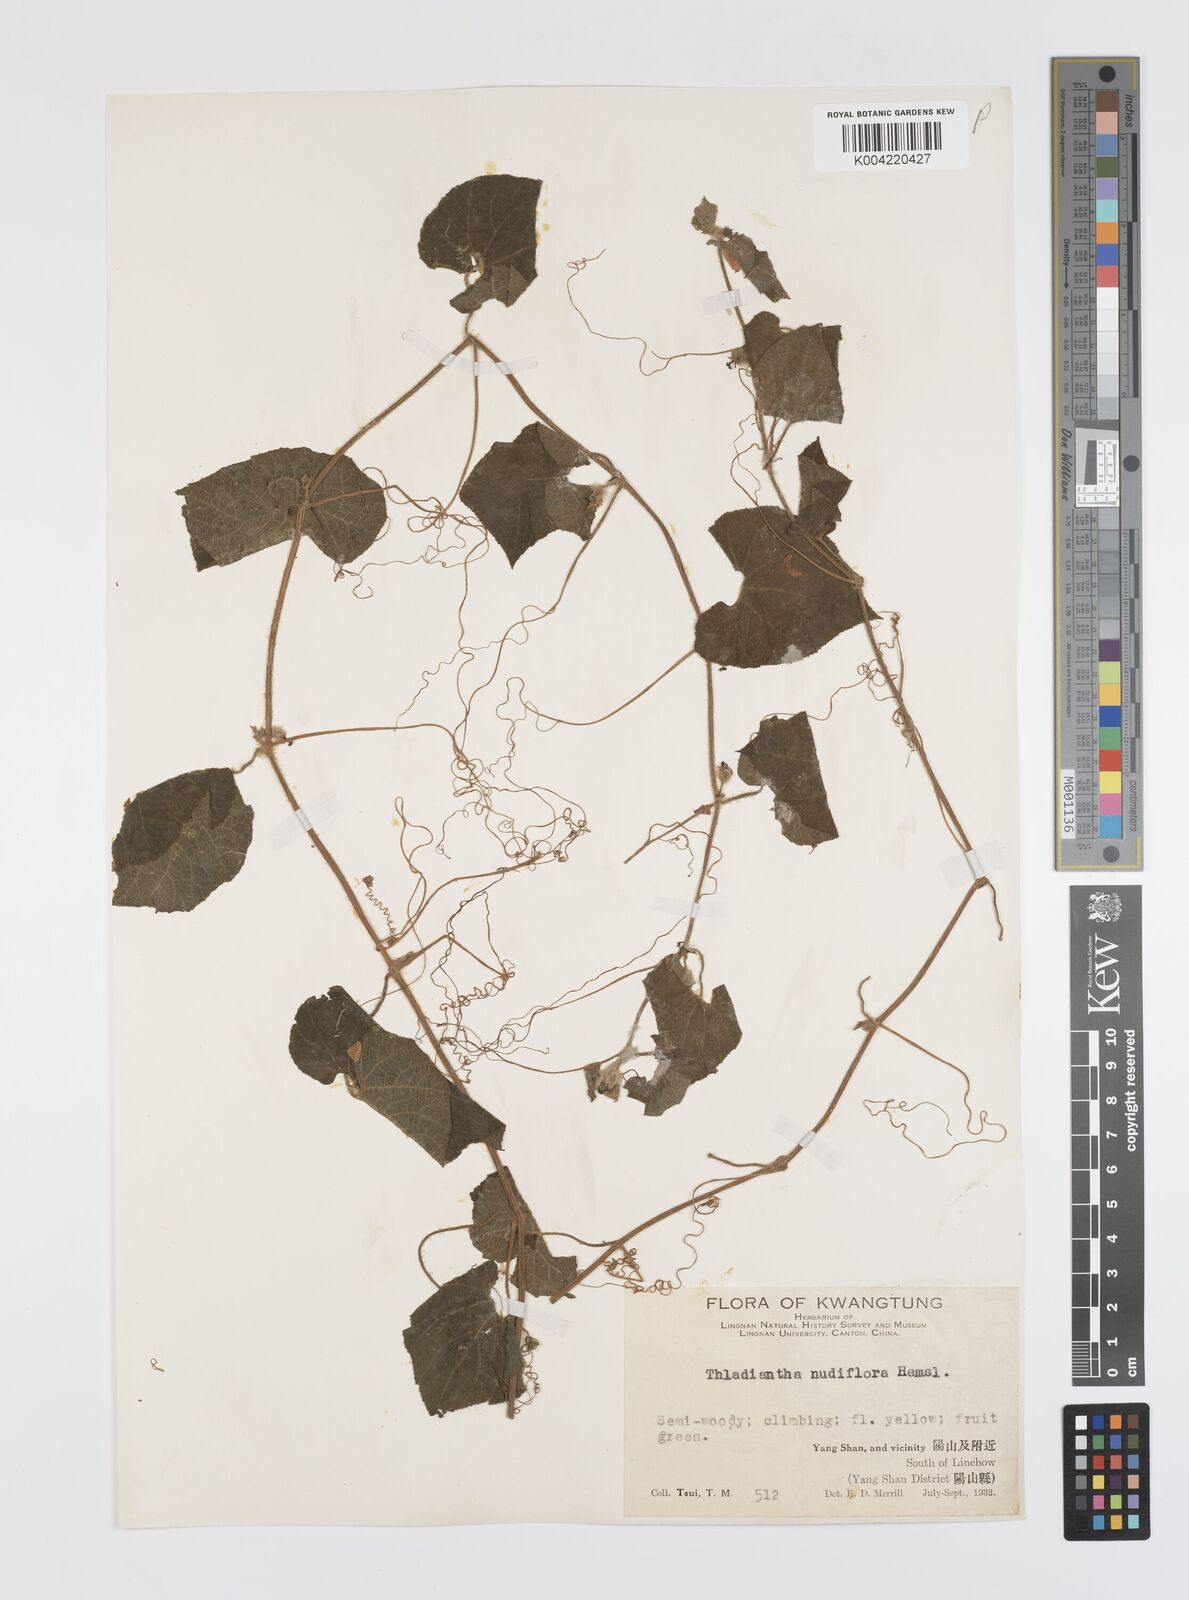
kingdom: Plantae
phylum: Tracheophyta
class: Magnoliopsida
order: Cucurbitales
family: Cucurbitaceae
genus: Thladiantha
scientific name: Thladiantha nudiflora
